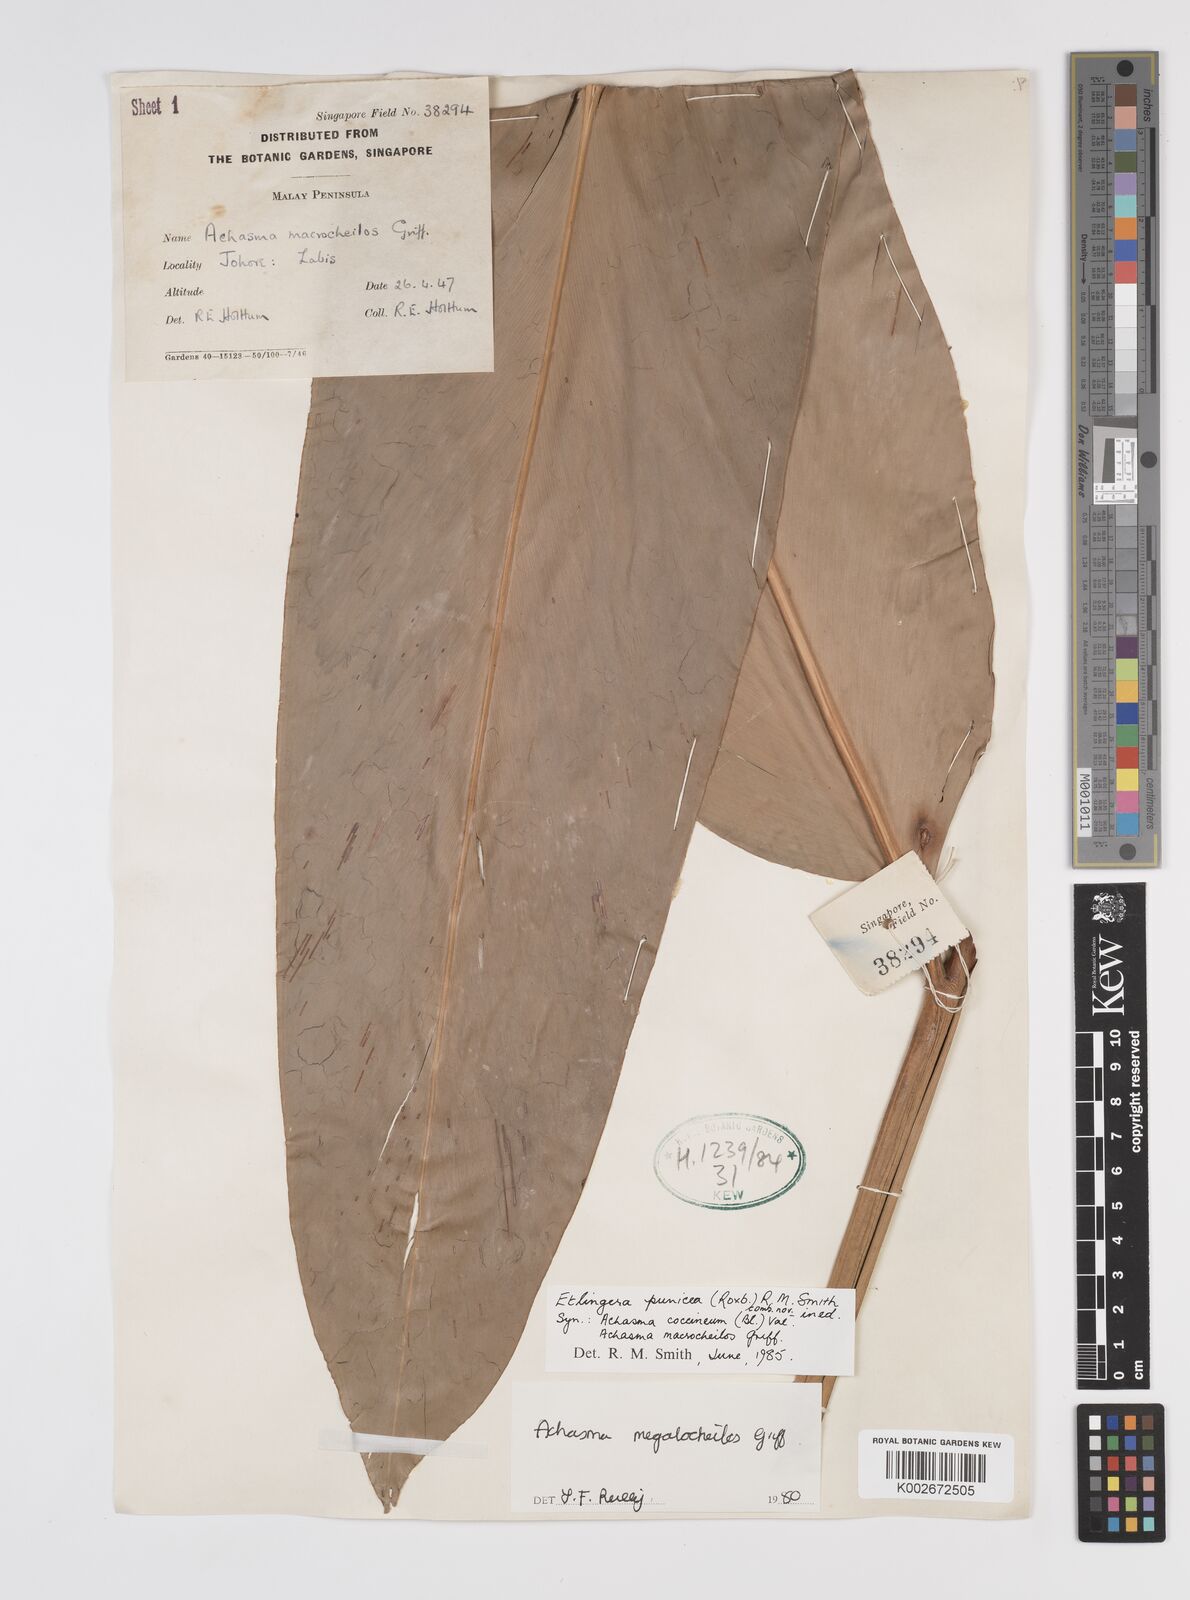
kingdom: Plantae
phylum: Tracheophyta
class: Liliopsida
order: Zingiberales
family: Zingiberaceae
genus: Etlingera
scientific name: Etlingera punicea
